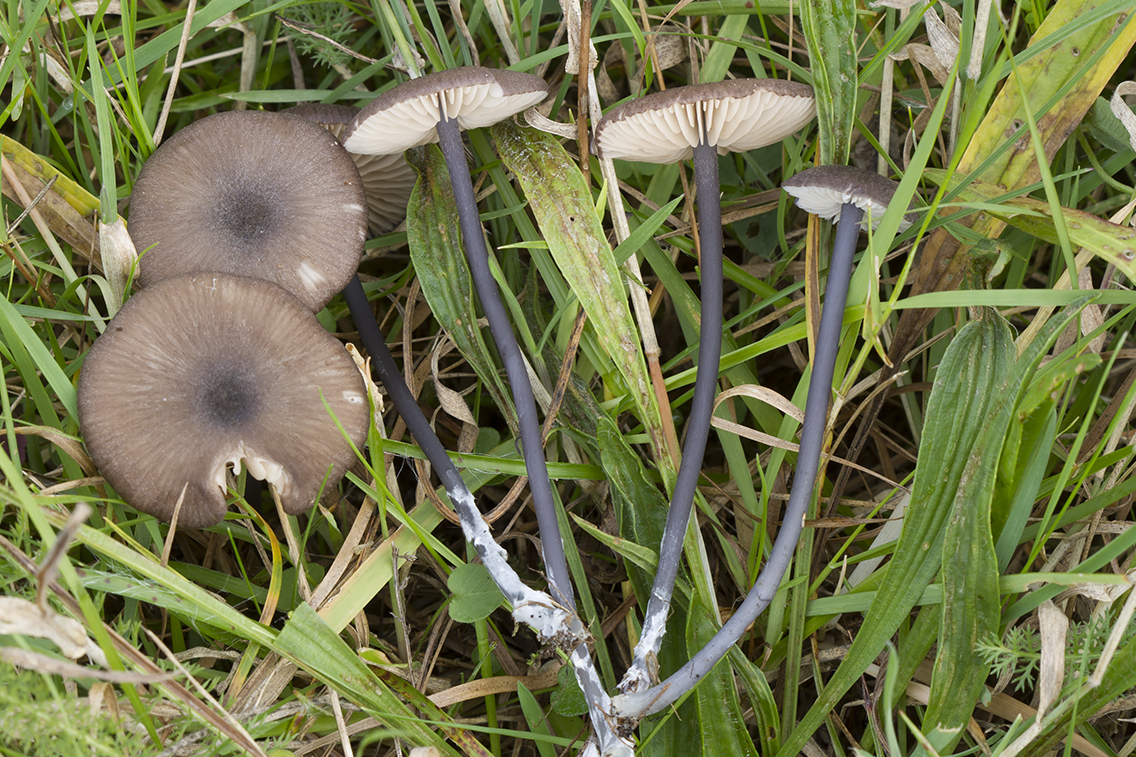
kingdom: Fungi
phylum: Basidiomycota
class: Agaricomycetes
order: Agaricales
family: Entolomataceae
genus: Entoloma
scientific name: Entoloma atrocoeruleum
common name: sortblå rødblad
